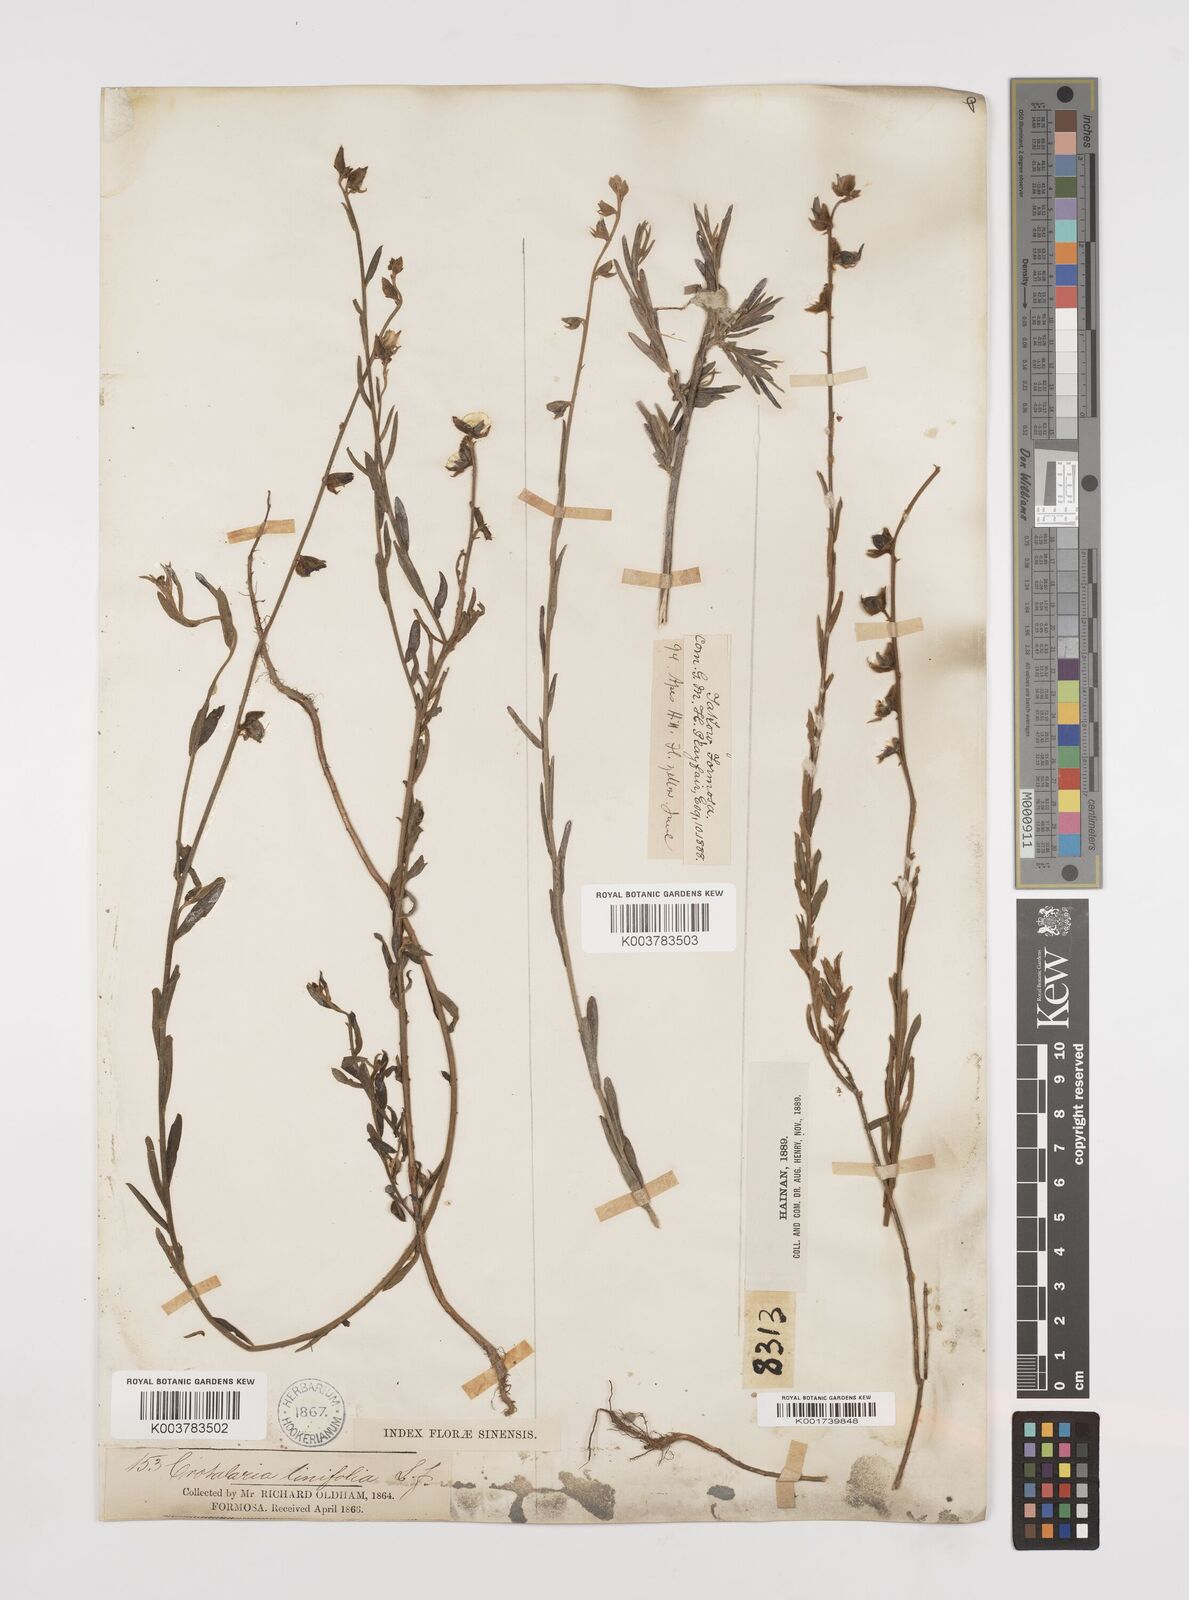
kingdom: Plantae
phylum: Tracheophyta
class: Magnoliopsida
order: Fabales
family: Fabaceae
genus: Crotalaria
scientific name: Crotalaria linifolia
